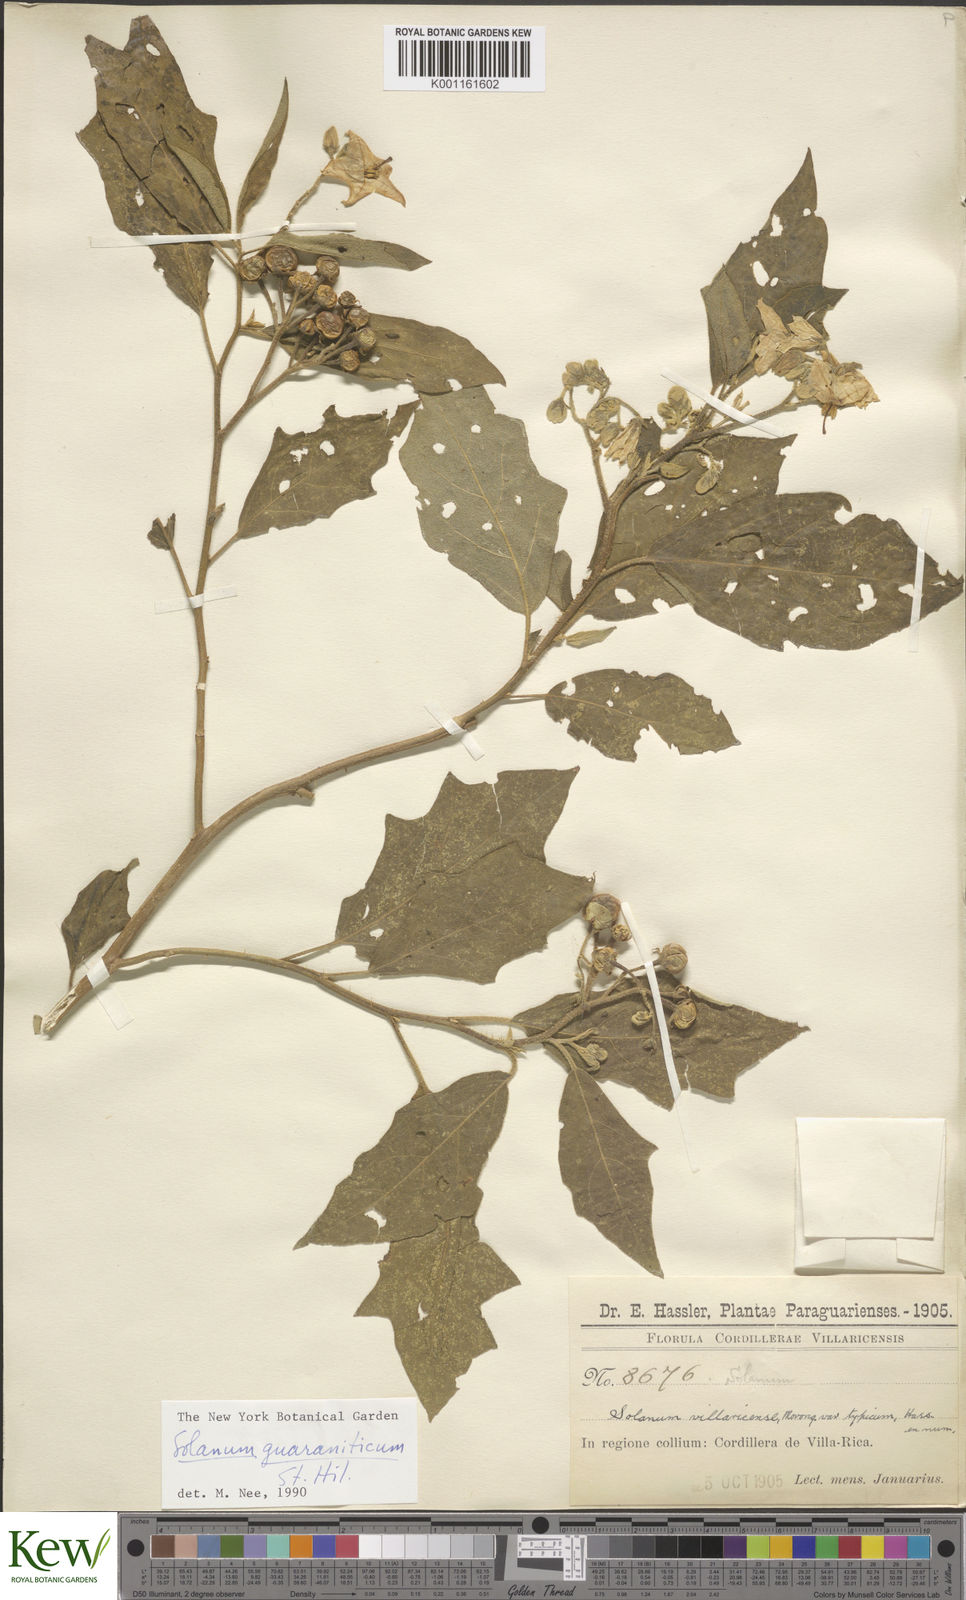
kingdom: Plantae
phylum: Tracheophyta
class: Magnoliopsida
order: Solanales
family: Solanaceae
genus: Solanum
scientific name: Solanum guaraniticum
